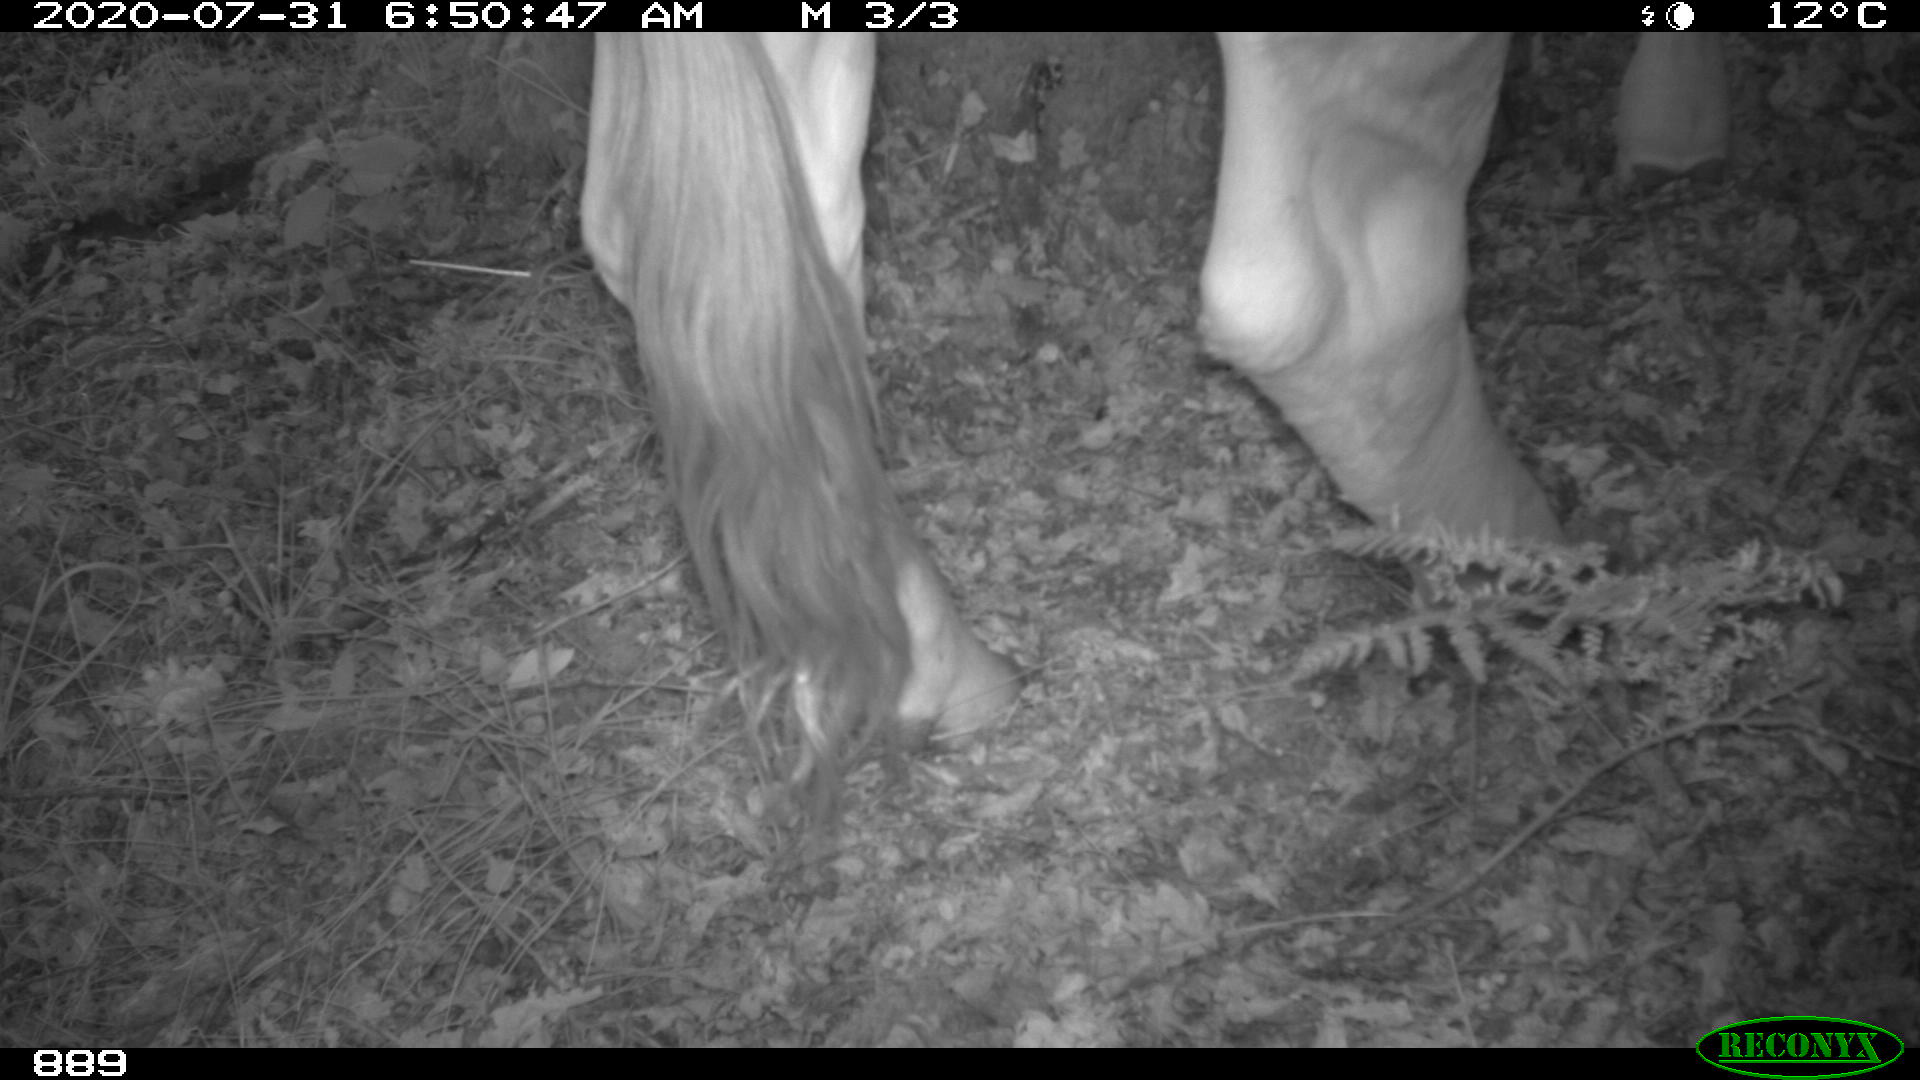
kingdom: Animalia
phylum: Chordata
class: Mammalia
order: Artiodactyla
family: Bovidae
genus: Bos
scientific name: Bos taurus
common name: Domesticated cattle
